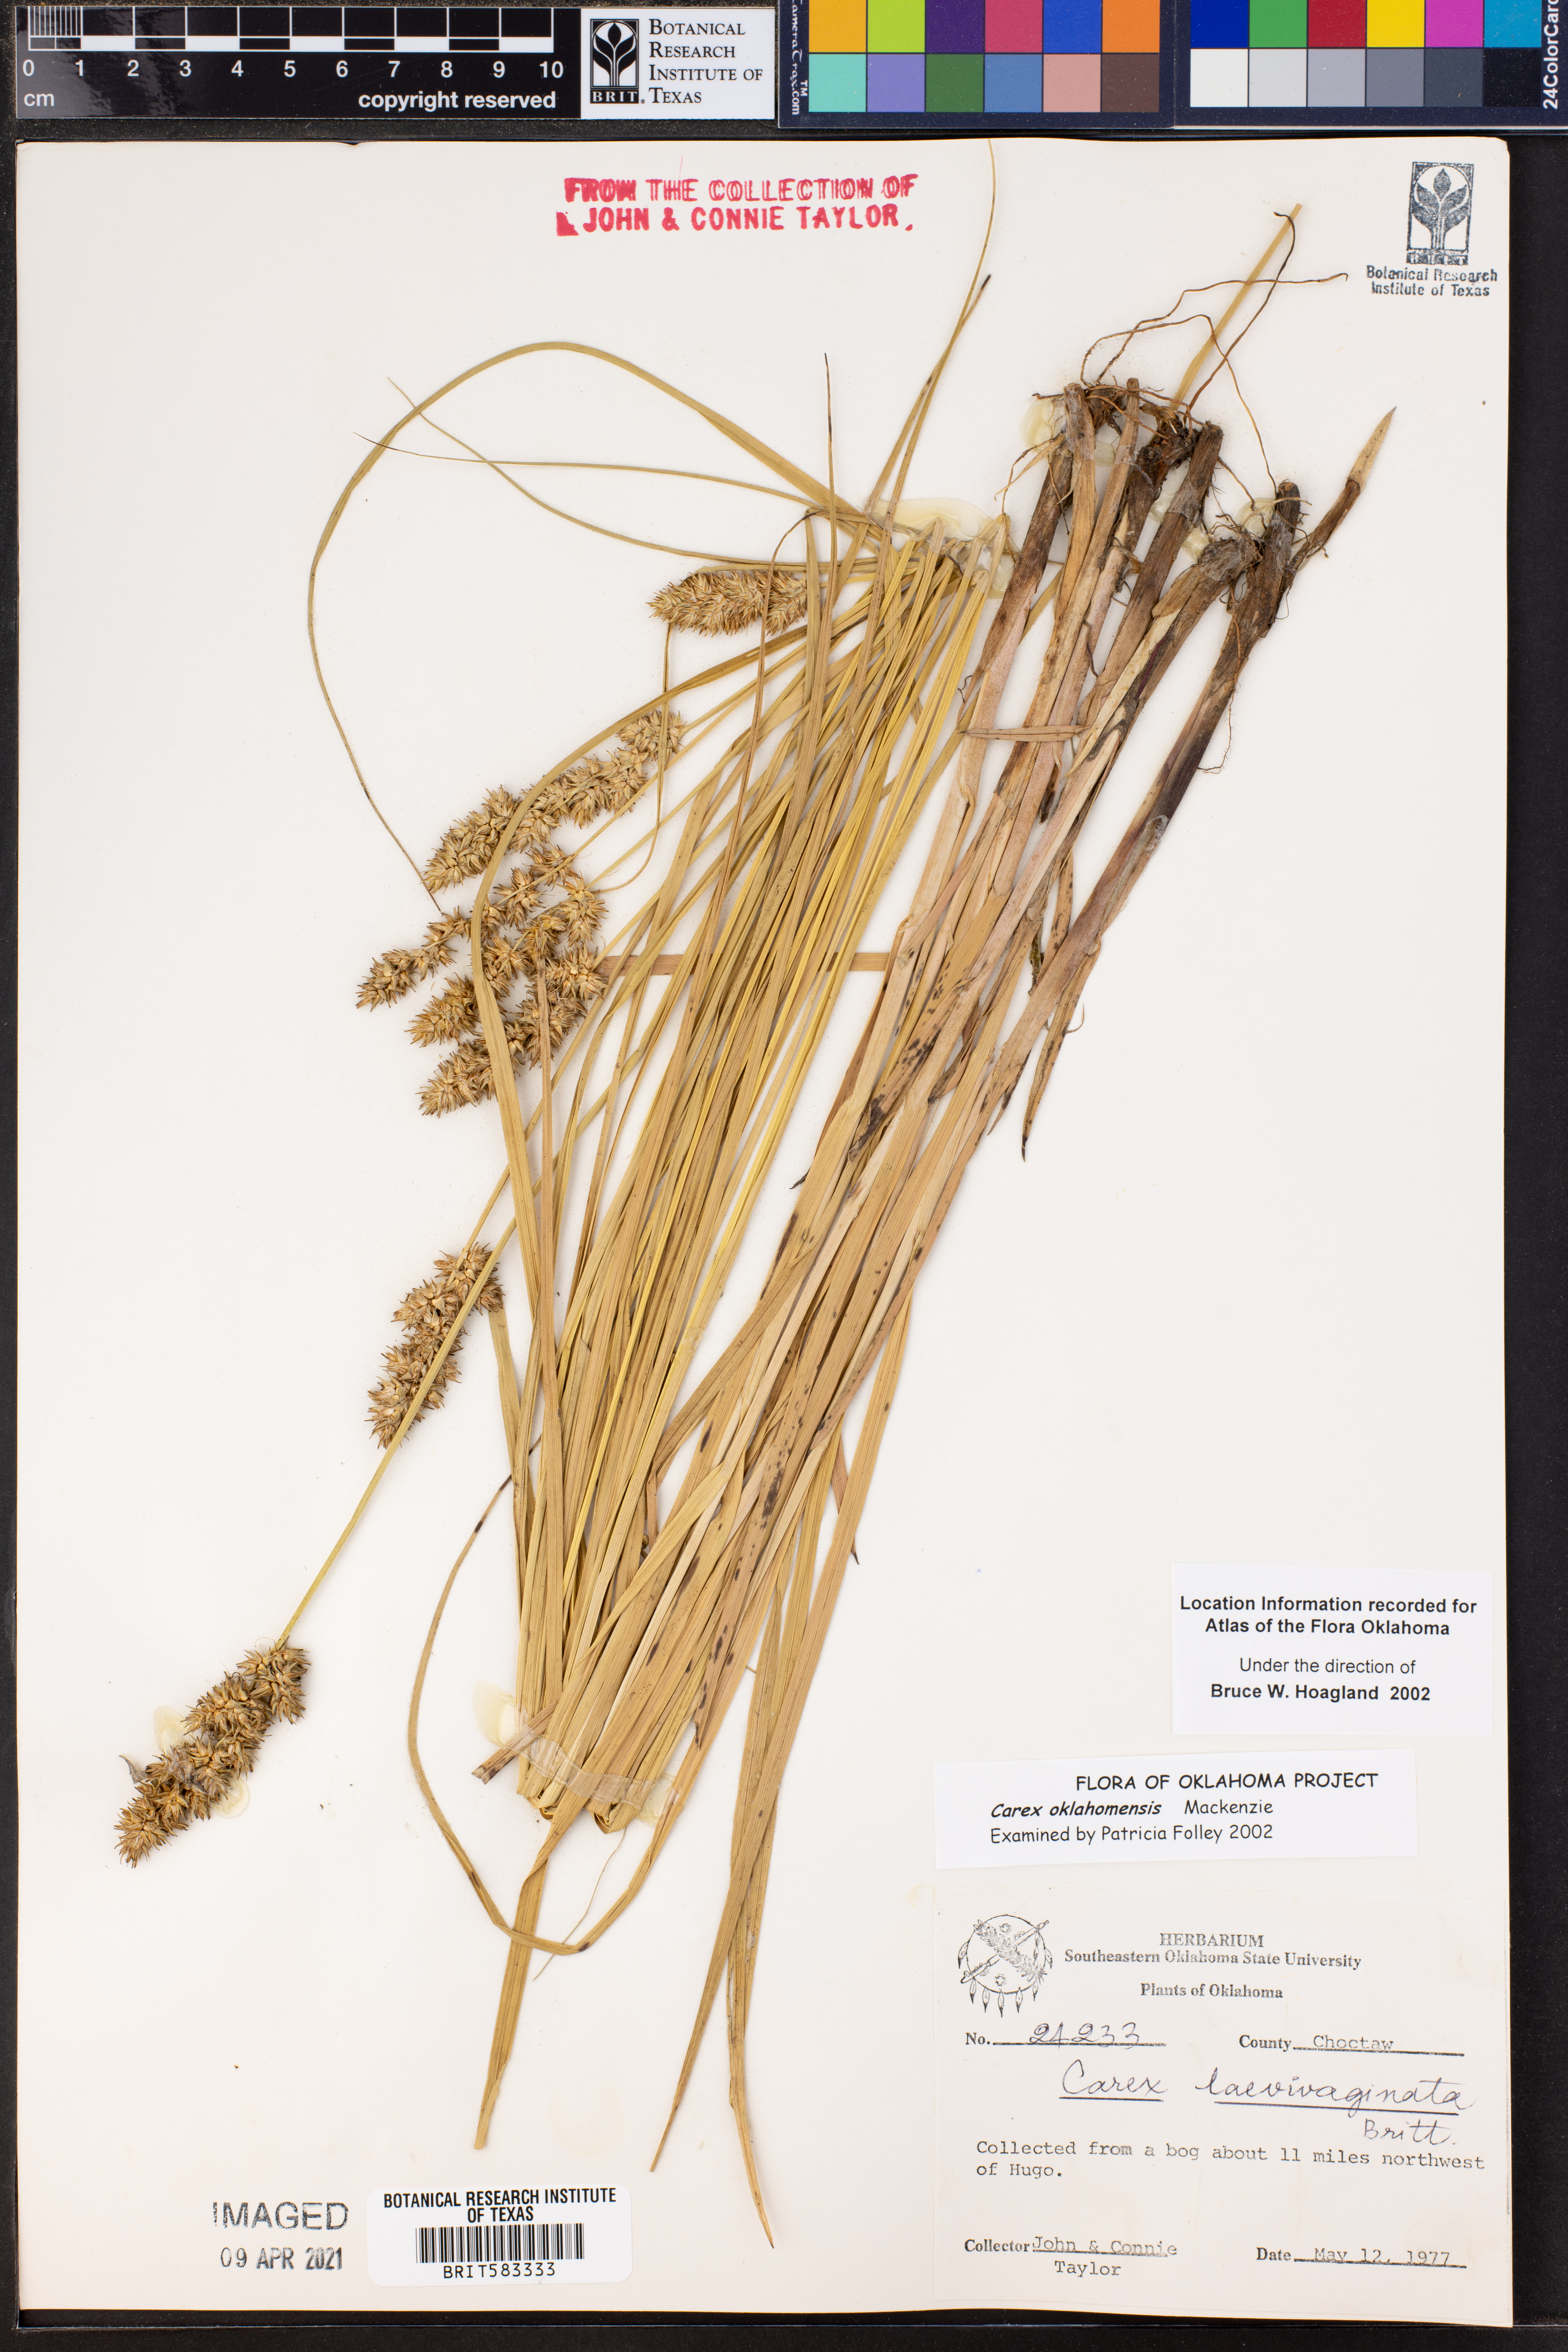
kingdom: Plantae
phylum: Tracheophyta
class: Liliopsida
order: Poales
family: Cyperaceae
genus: Carex
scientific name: Carex oklahomensis
